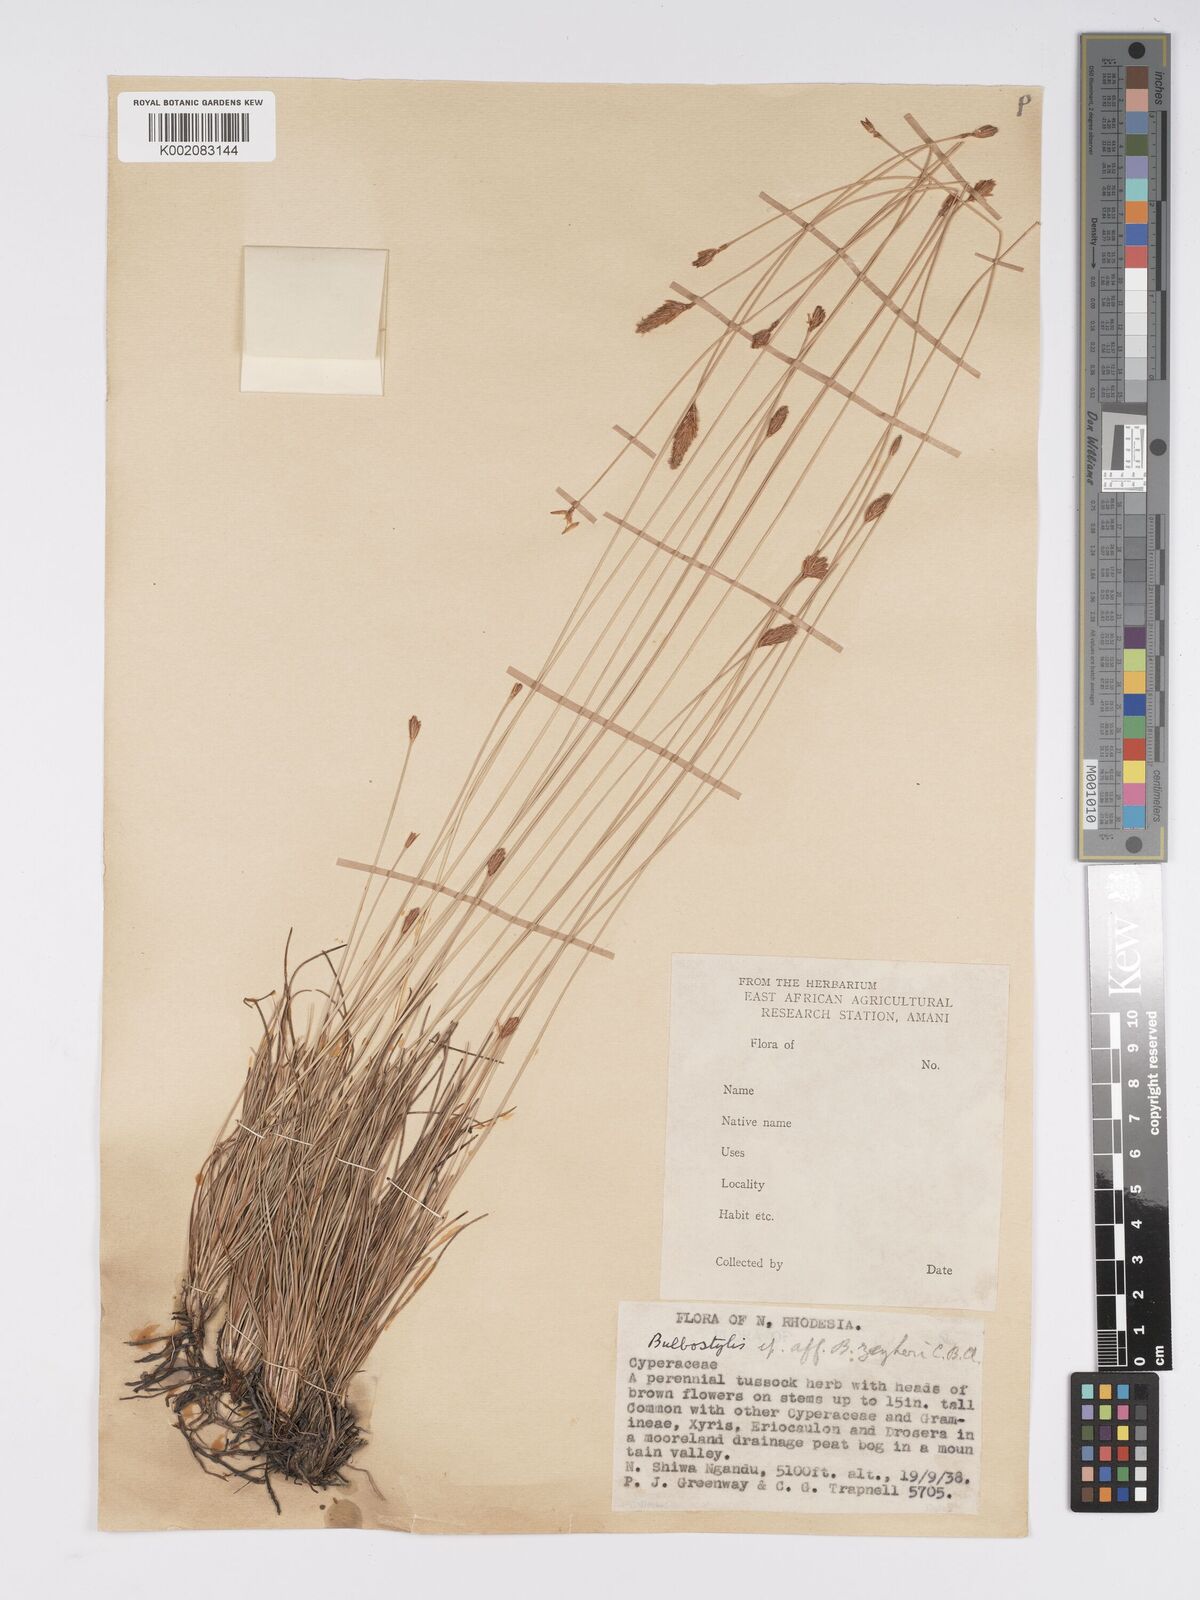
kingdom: Plantae
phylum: Tracheophyta
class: Liliopsida
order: Poales
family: Cyperaceae
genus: Bulbostylis
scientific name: Bulbostylis schoenoides
